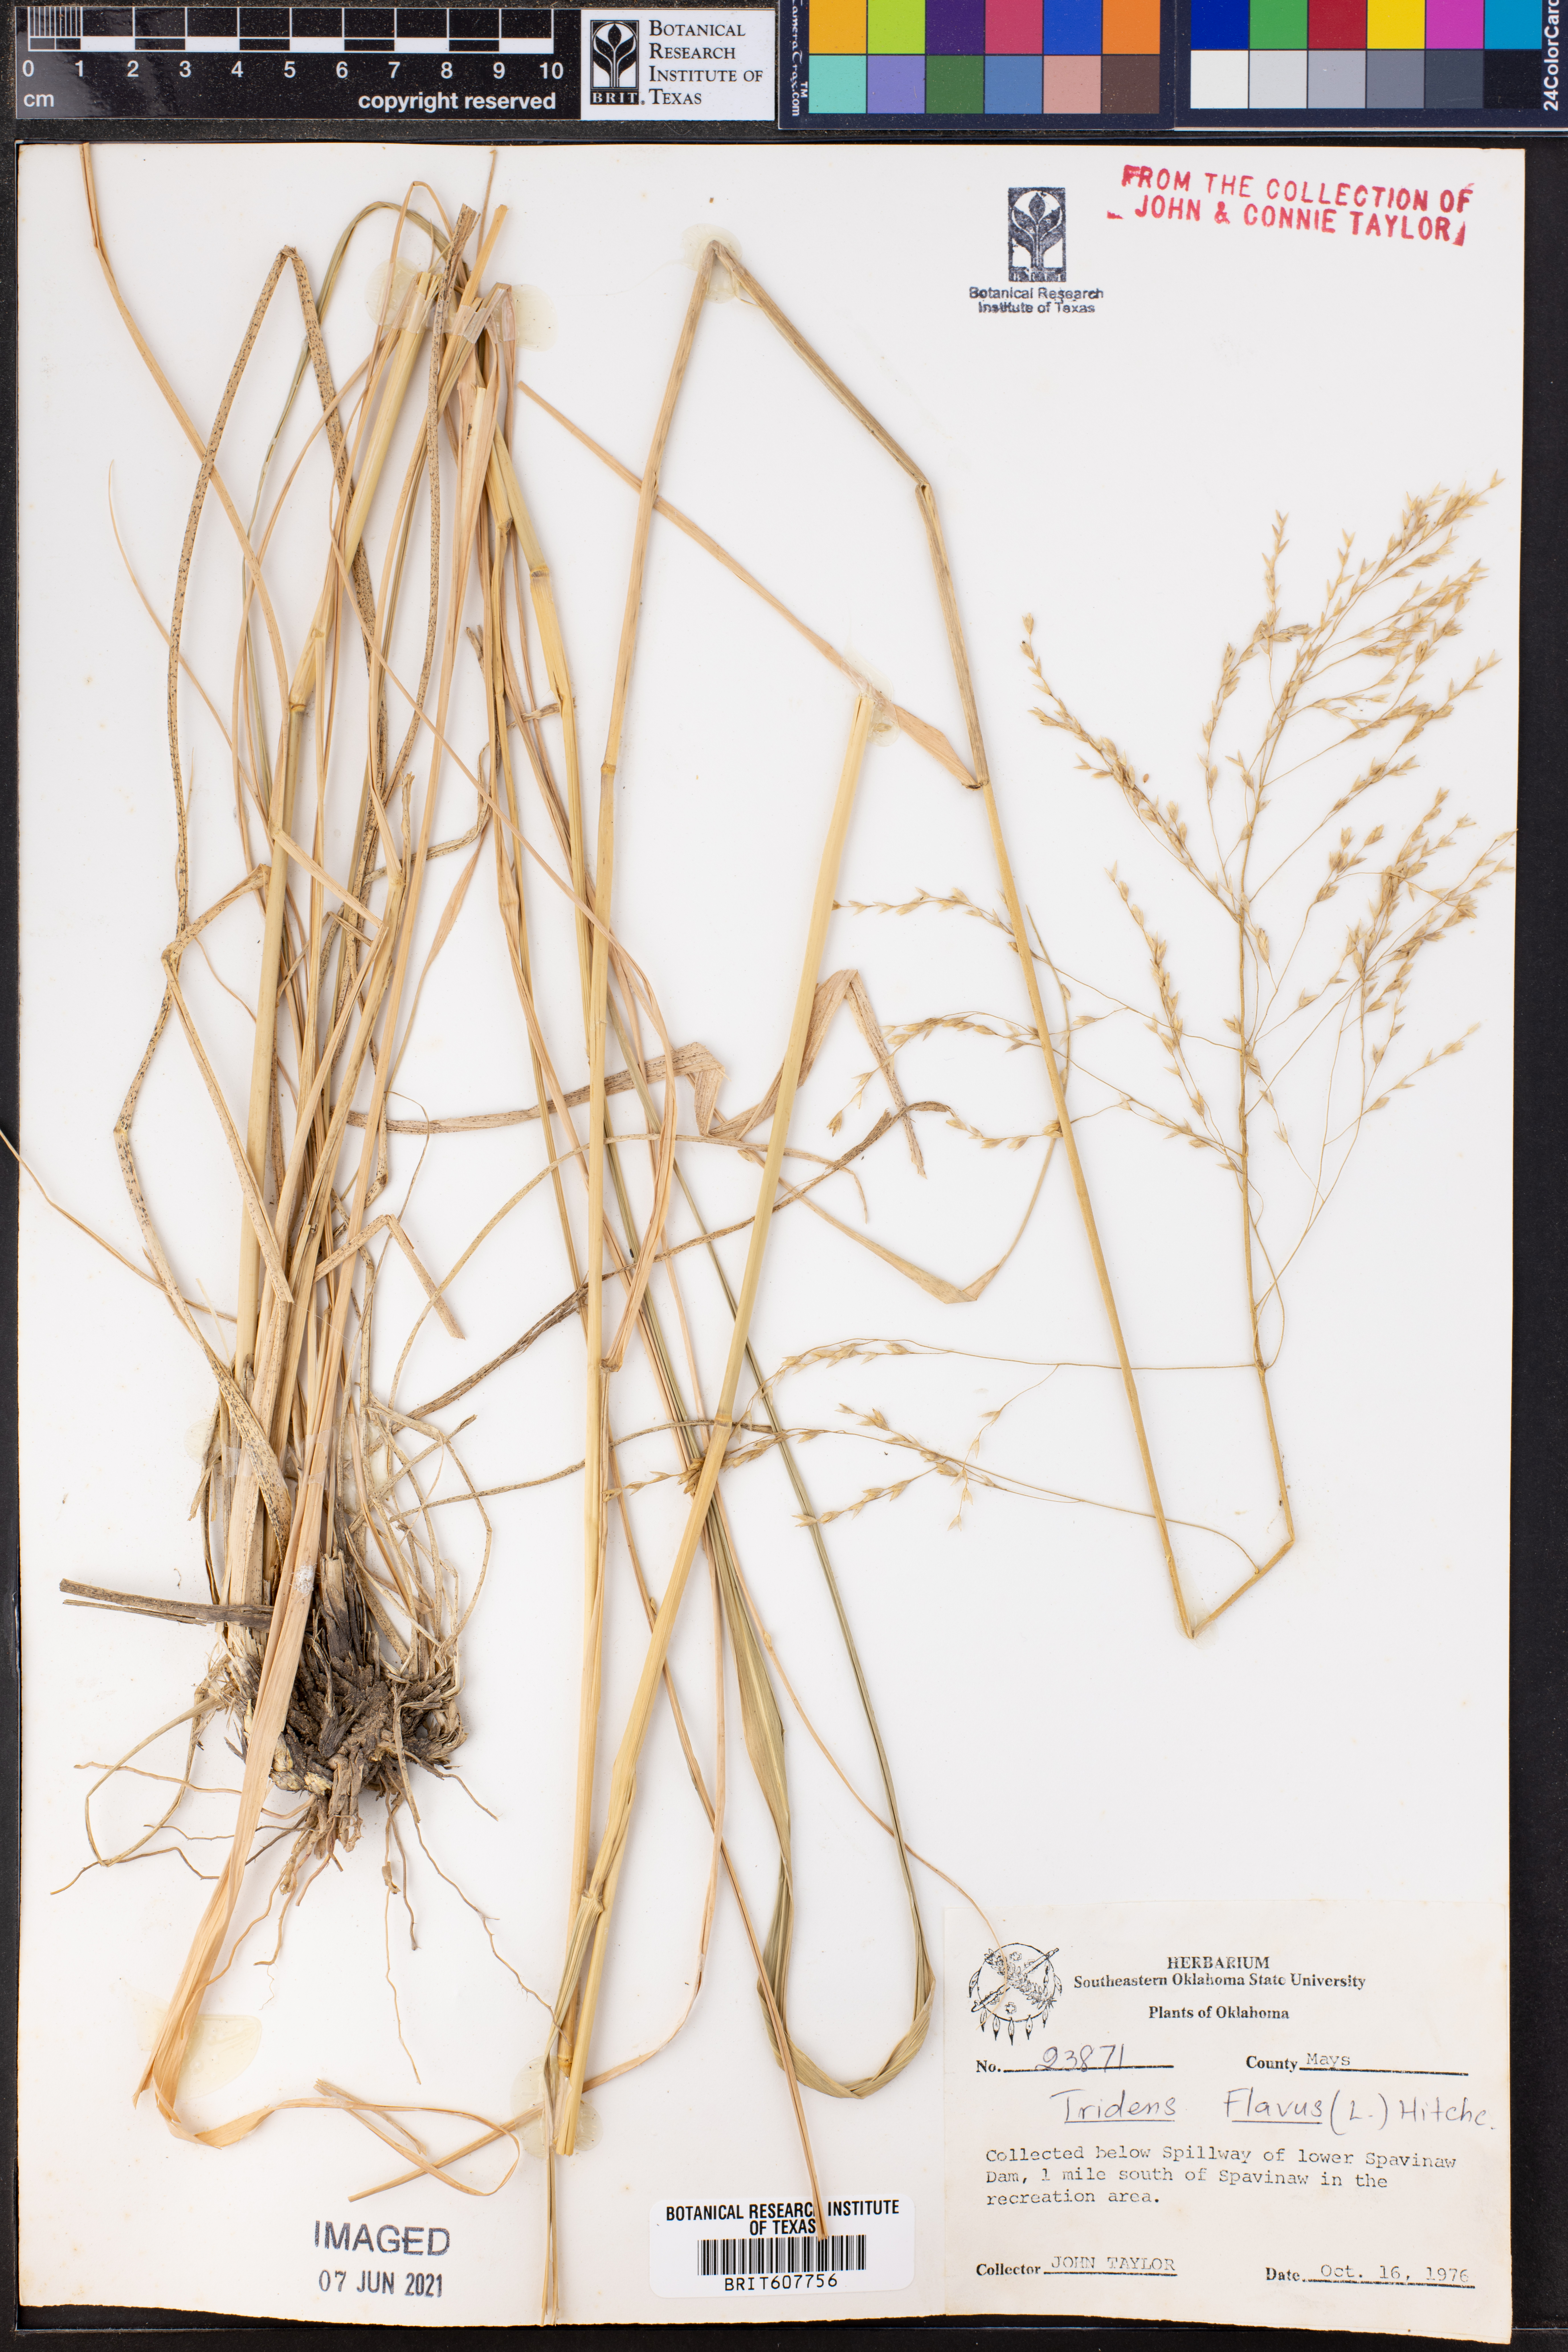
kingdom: Plantae
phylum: Tracheophyta
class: Liliopsida
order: Poales
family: Poaceae
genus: Tridens
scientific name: Tridens flavus
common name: Purpletop
